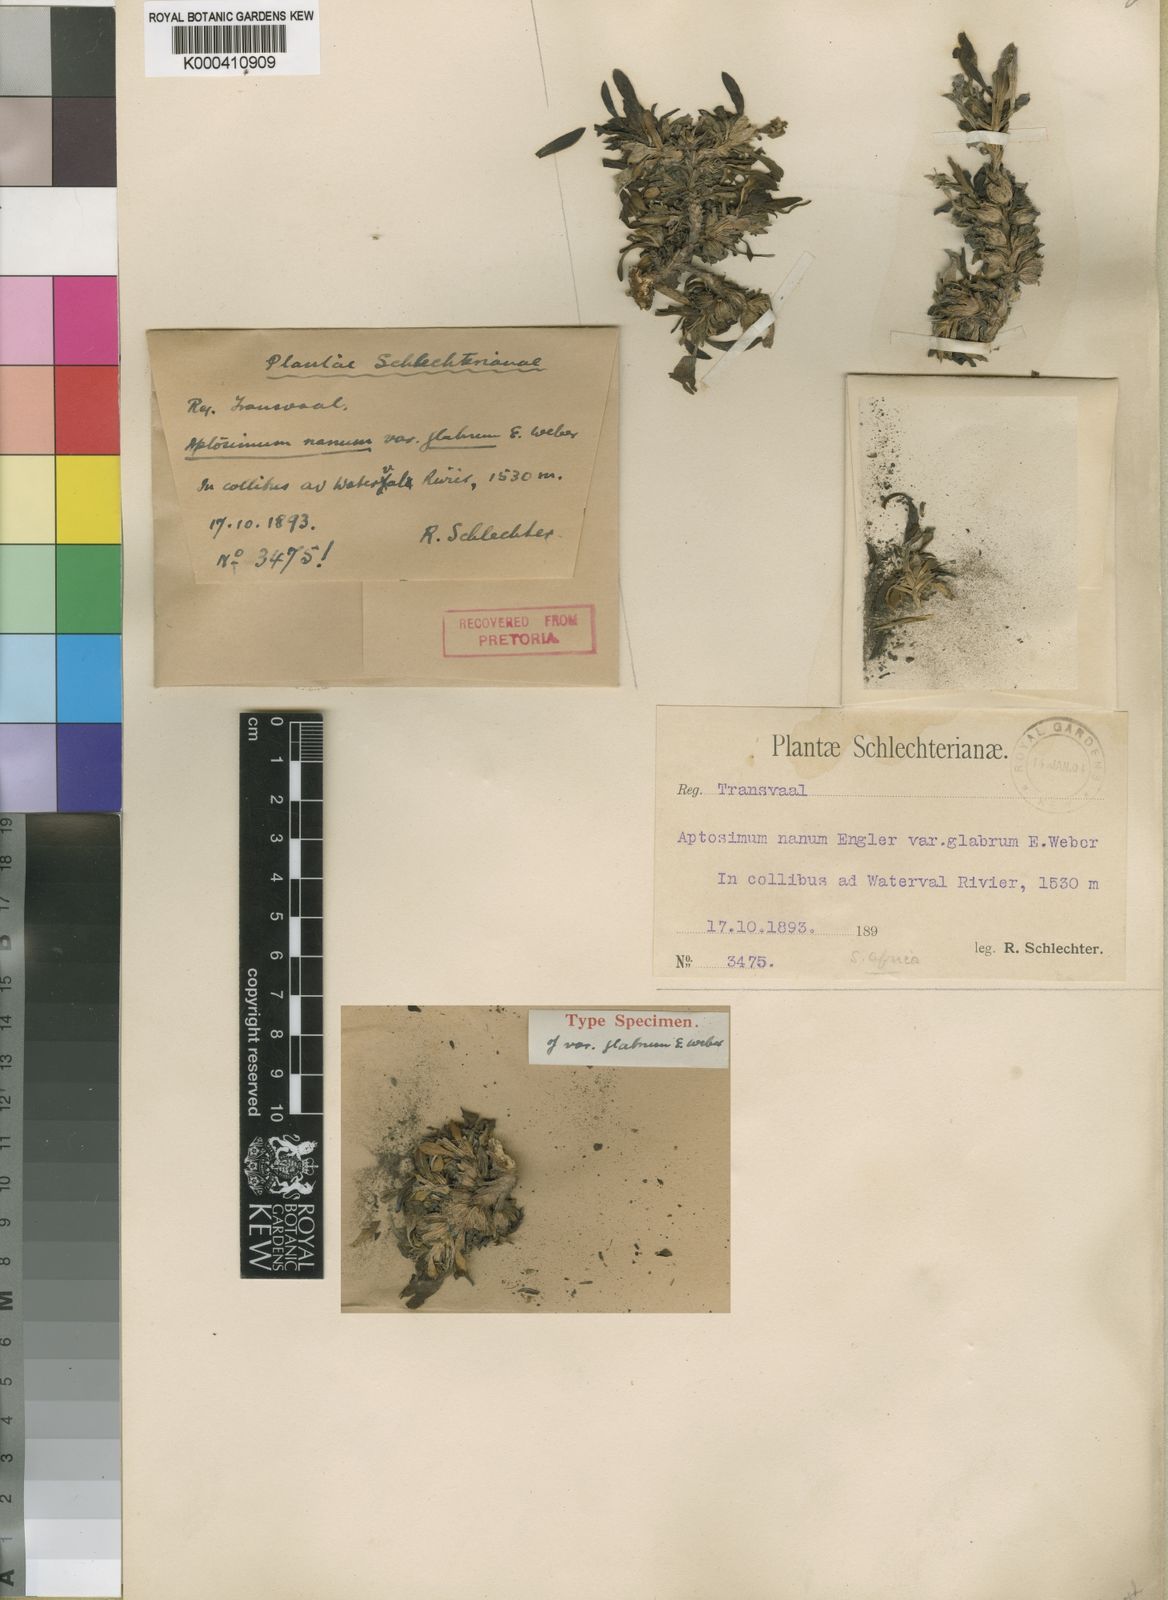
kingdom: Plantae
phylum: Tracheophyta
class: Magnoliopsida
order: Lamiales
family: Scrophulariaceae
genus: Aptosimum
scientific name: Aptosimum indivisum
